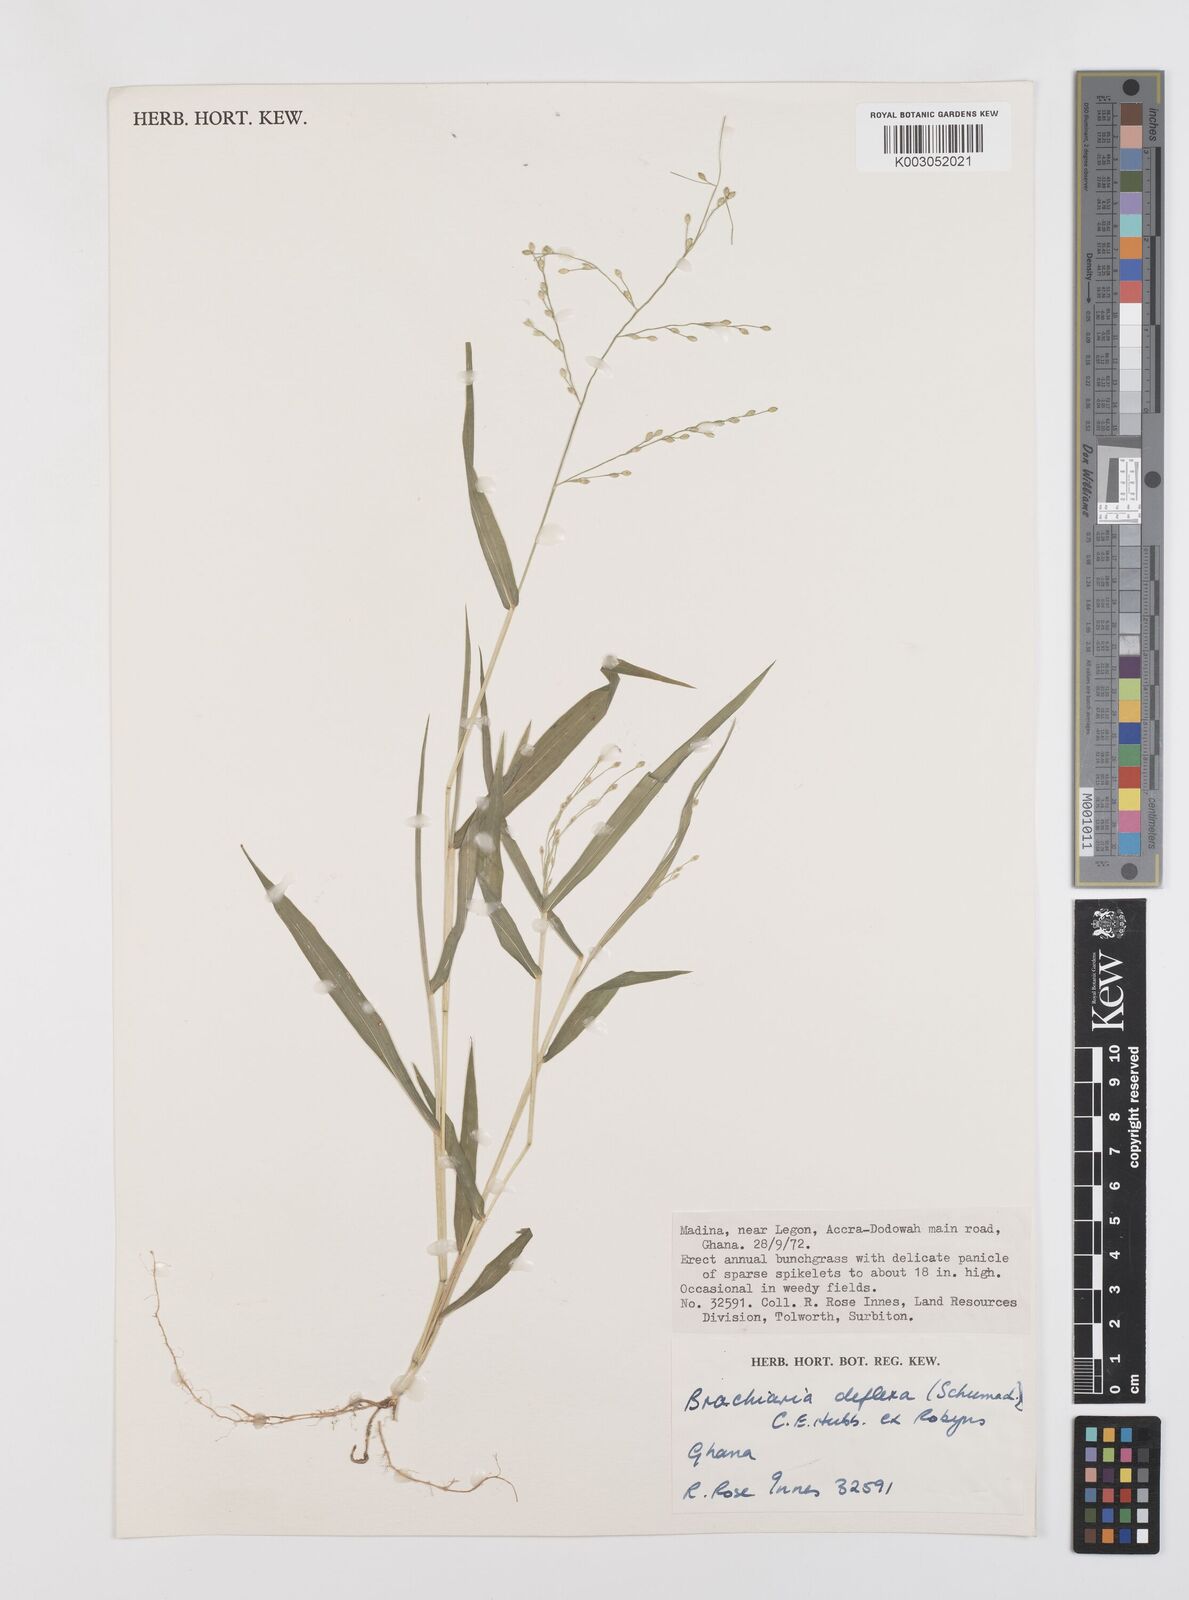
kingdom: Plantae
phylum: Tracheophyta
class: Liliopsida
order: Poales
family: Poaceae
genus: Urochloa
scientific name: Urochloa deflexa
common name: Guinea millet
